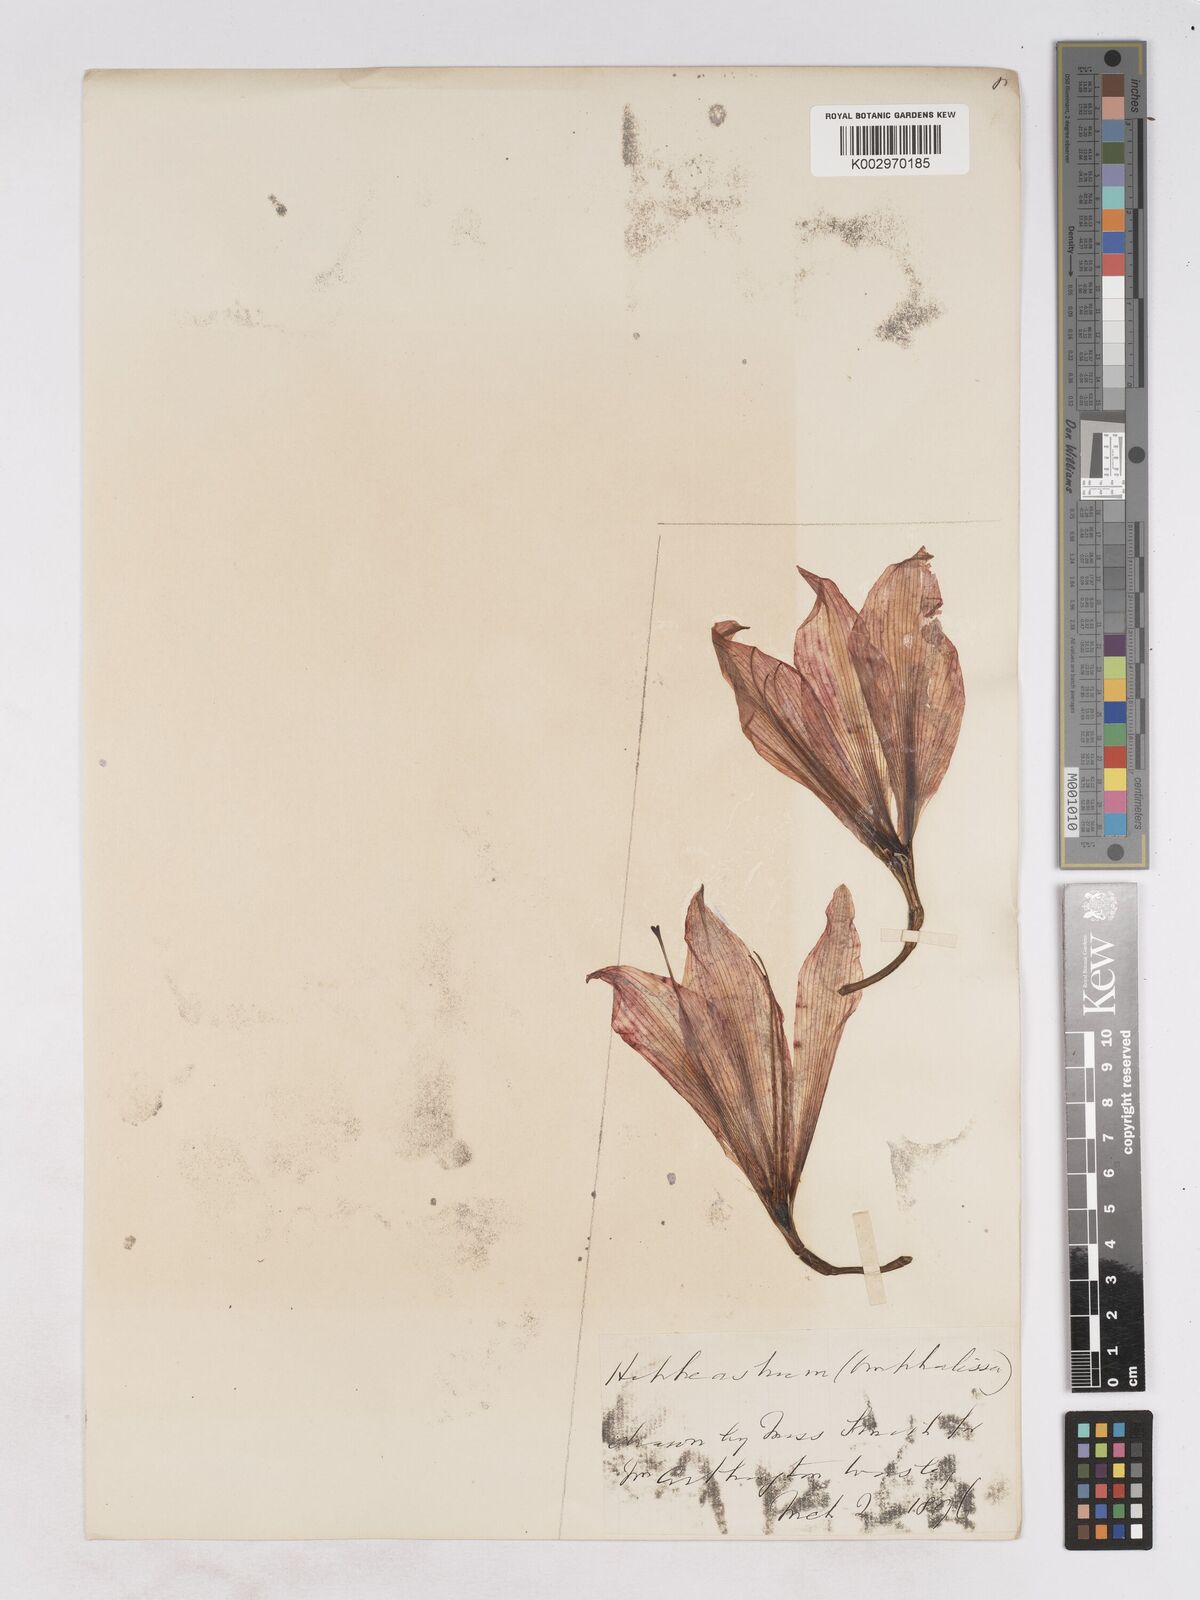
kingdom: Plantae
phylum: Tracheophyta
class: Liliopsida
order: Asparagales
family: Amaryllidaceae
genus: Hippeastrum
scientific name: Hippeastrum johnsonii
